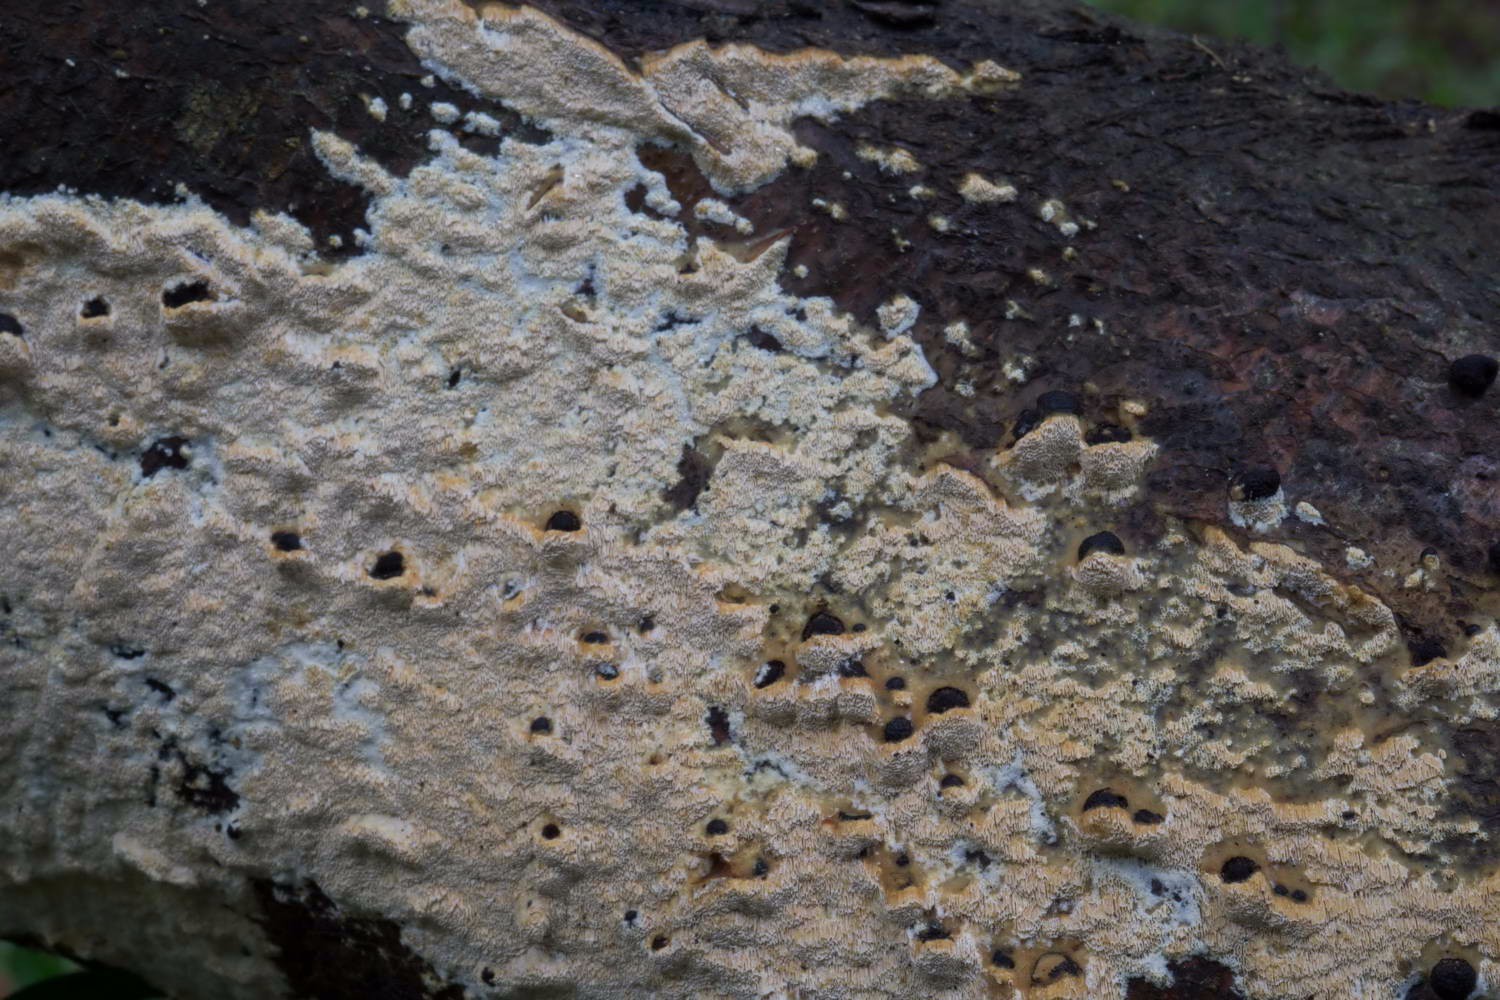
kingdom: Fungi
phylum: Basidiomycota
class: Agaricomycetes
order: Hymenochaetales
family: Schizoporaceae
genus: Xylodon
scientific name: Xylodon flaviporus
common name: gulporet tandsvamp
